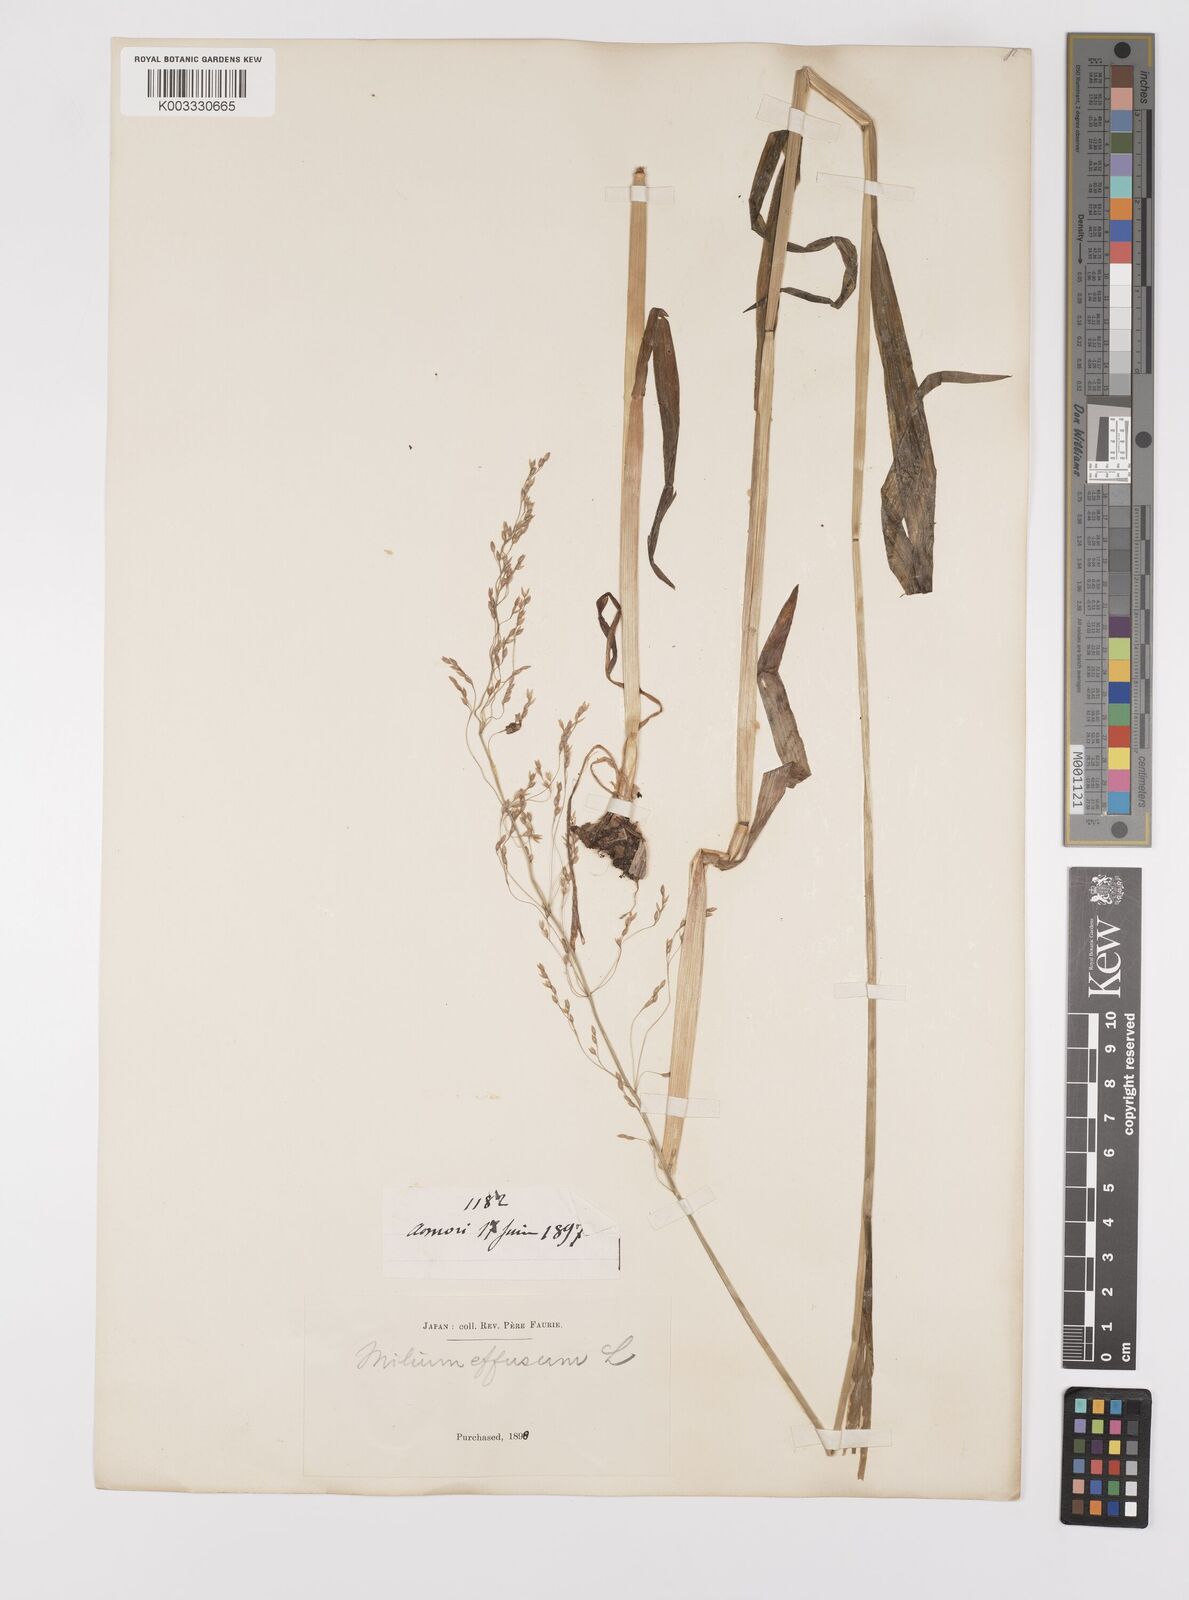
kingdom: Plantae
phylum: Tracheophyta
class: Liliopsida
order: Poales
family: Poaceae
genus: Milium
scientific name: Milium effusum
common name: Wood millet
